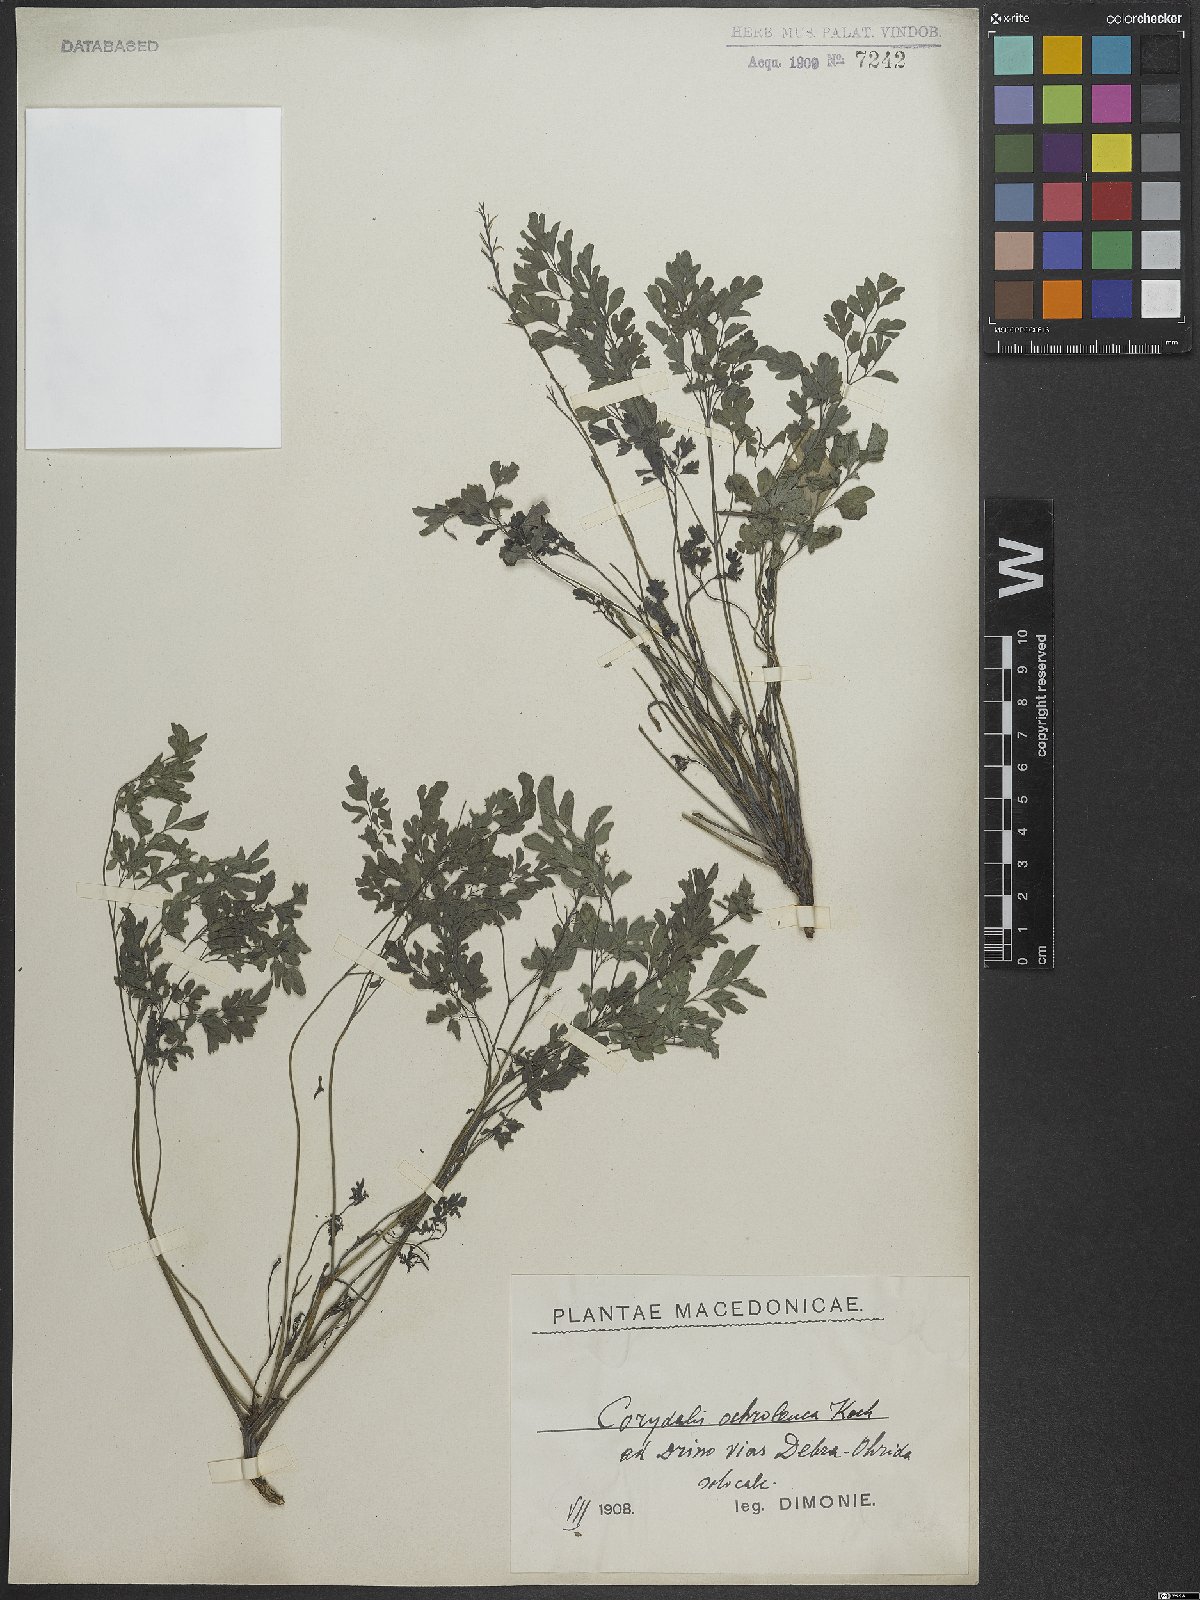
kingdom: Plantae
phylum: Tracheophyta
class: Magnoliopsida
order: Ranunculales
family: Papaveraceae
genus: Pseudofumaria
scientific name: Pseudofumaria alba
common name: Pale corydalis
